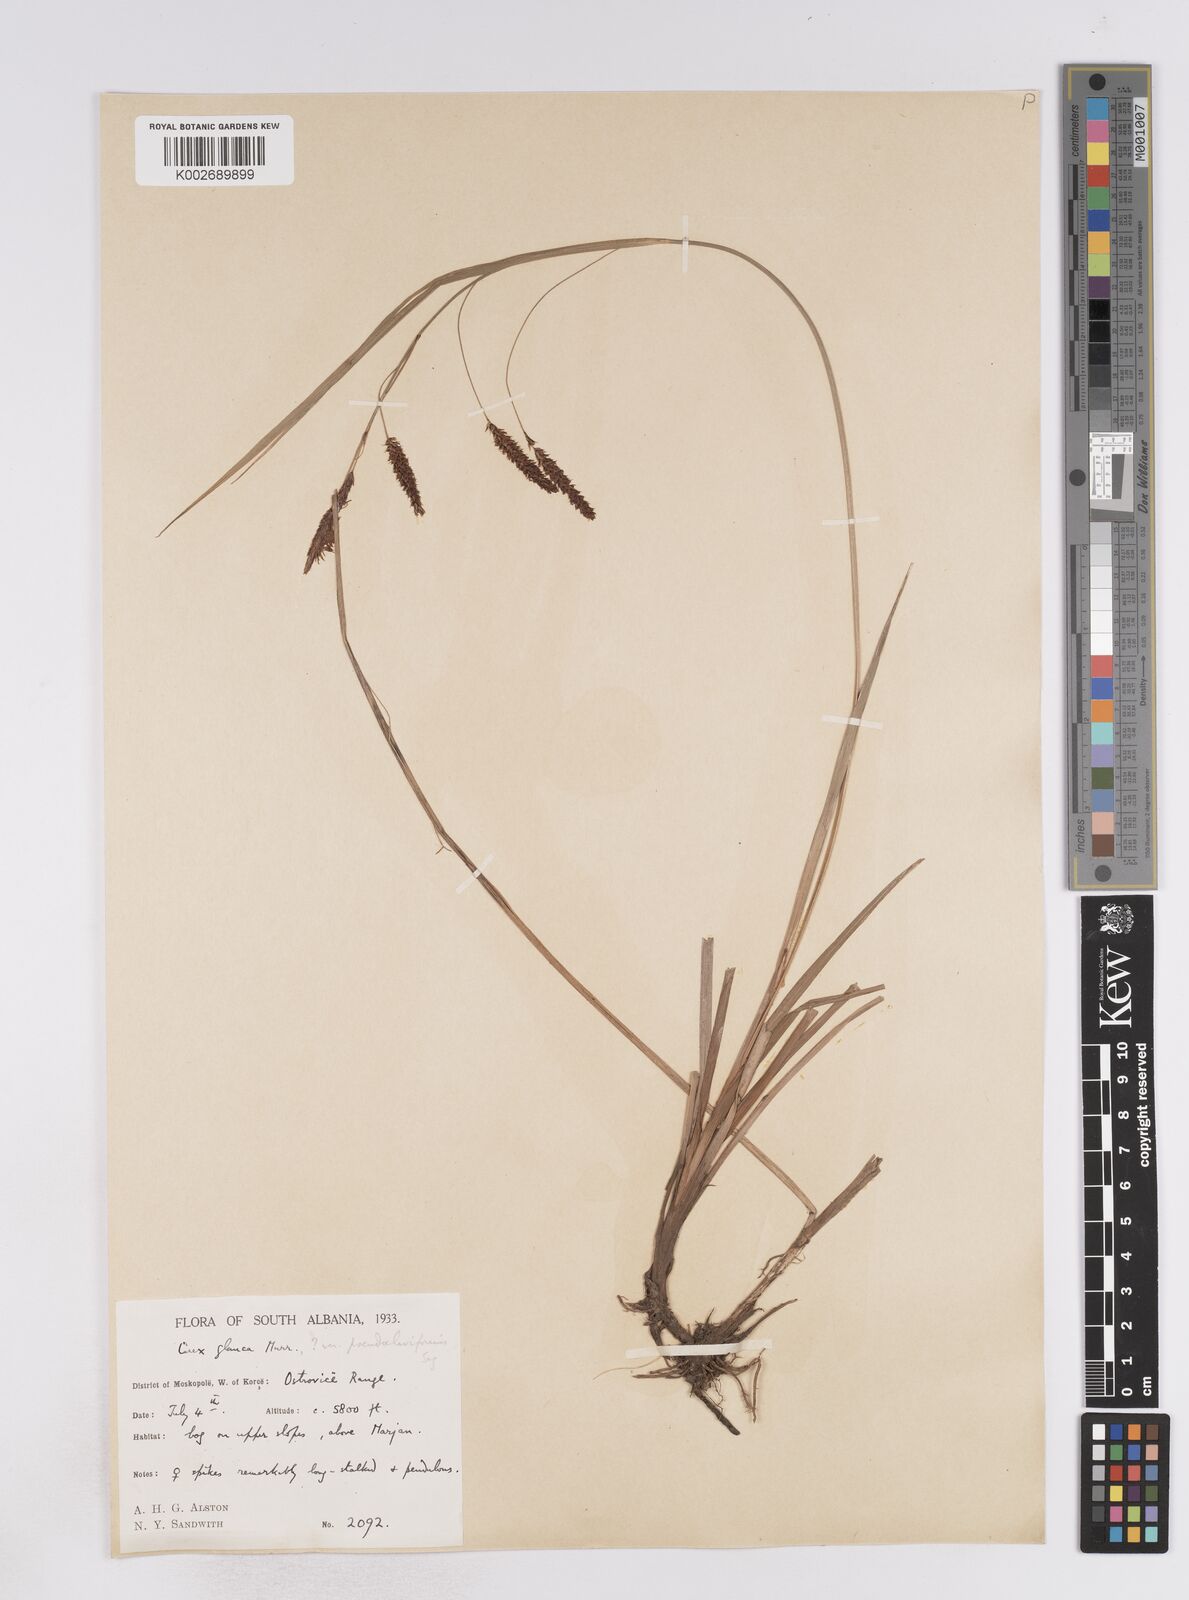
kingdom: Plantae
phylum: Tracheophyta
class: Liliopsida
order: Poales
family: Cyperaceae
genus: Carex
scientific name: Carex flacca
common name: Glaucous sedge
